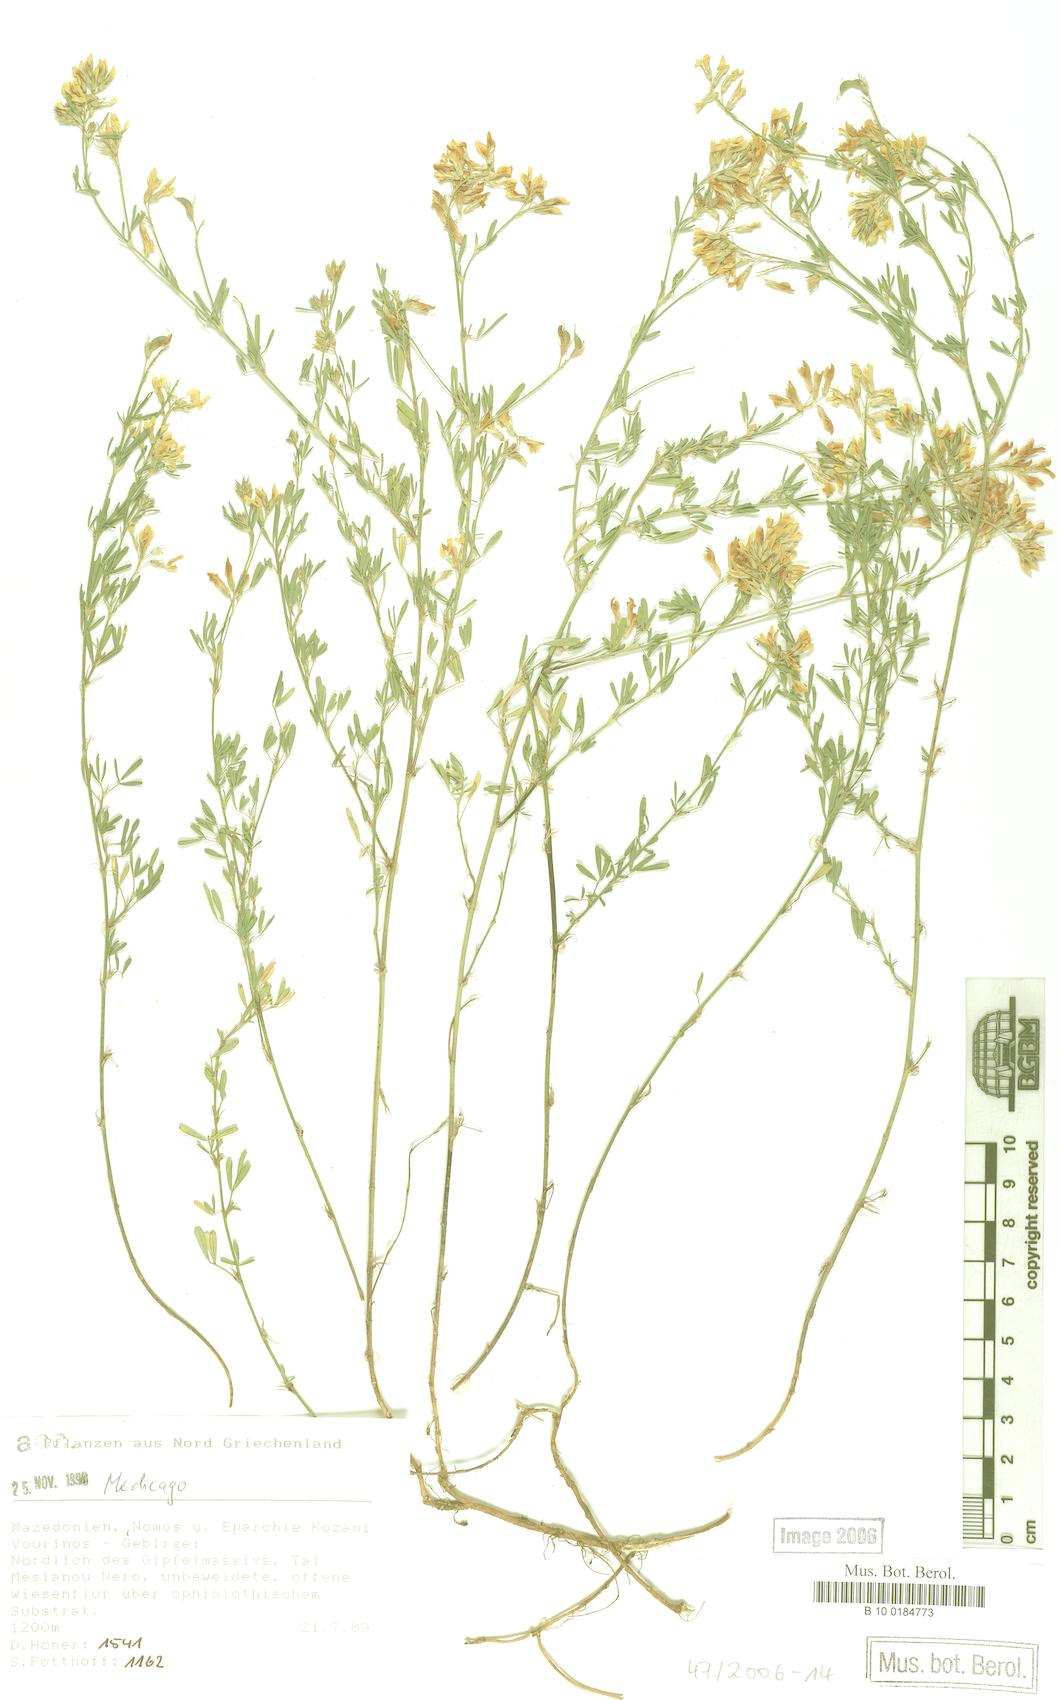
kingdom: Plantae
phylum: Tracheophyta
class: Magnoliopsida
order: Fabales
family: Fabaceae
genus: Medicago
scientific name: Medicago
